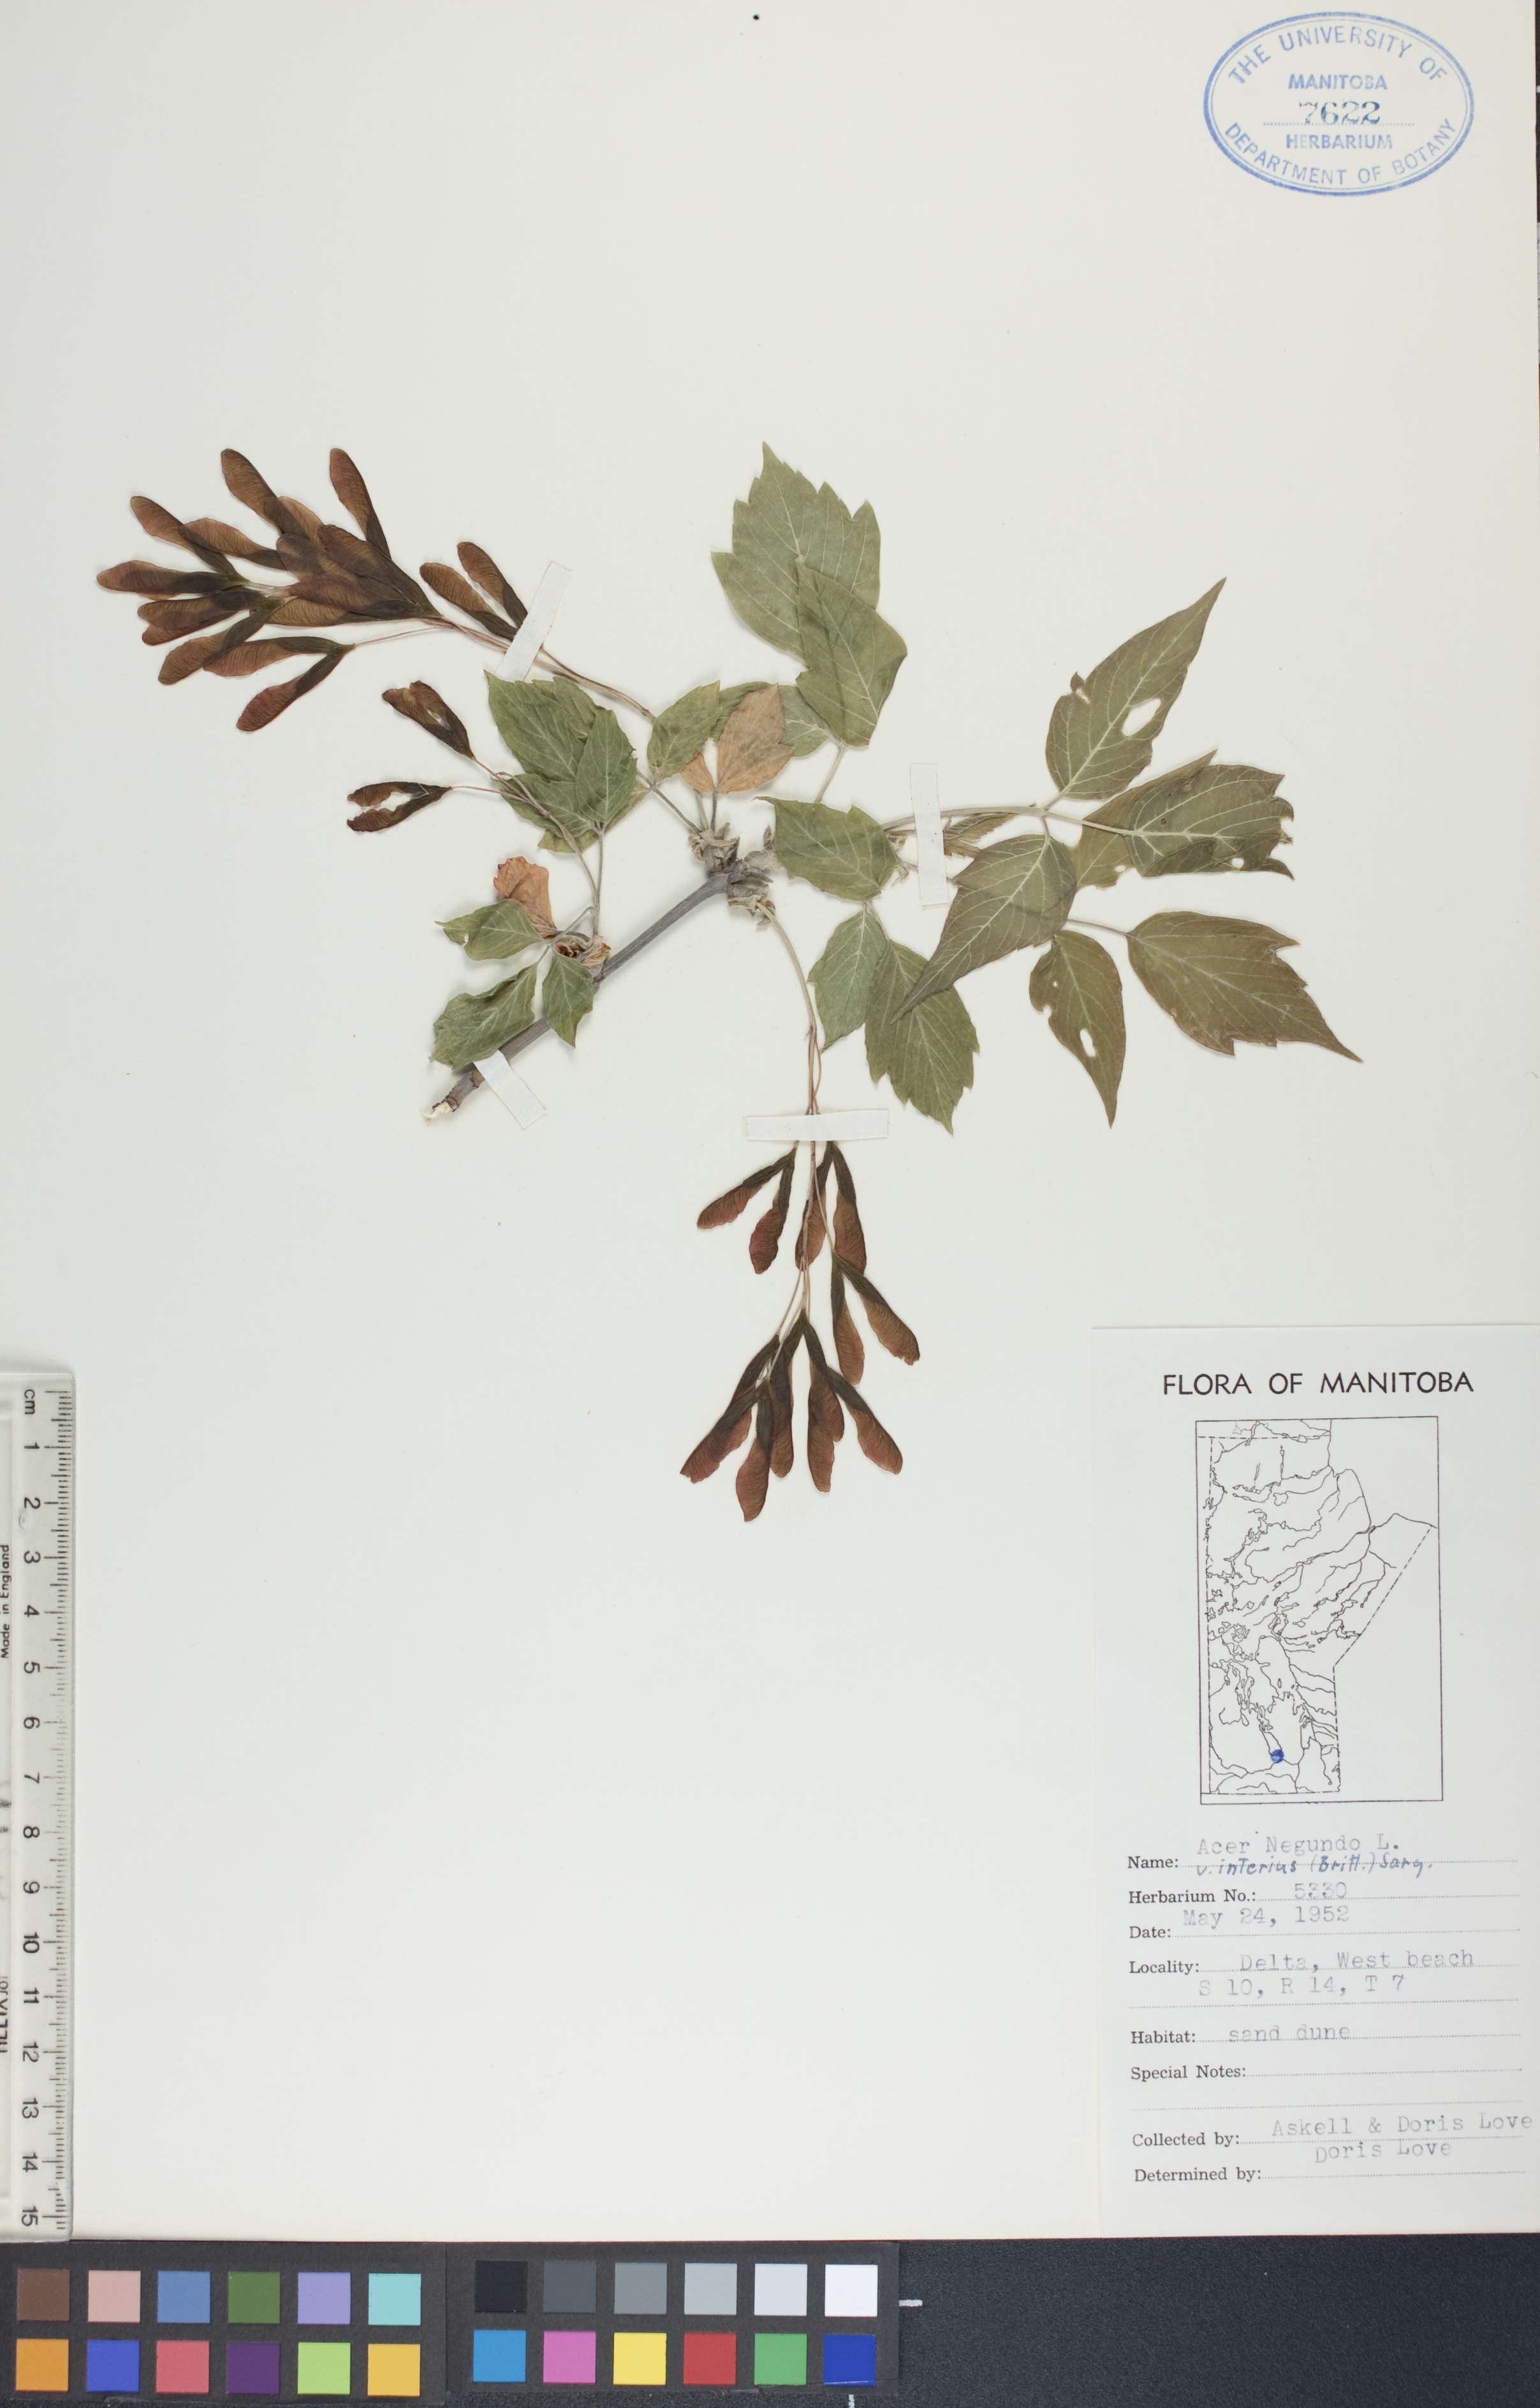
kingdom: Plantae
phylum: Tracheophyta
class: Magnoliopsida
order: Sapindales
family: Sapindaceae
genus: Acer
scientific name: Acer negundo
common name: Ashleaf maple
